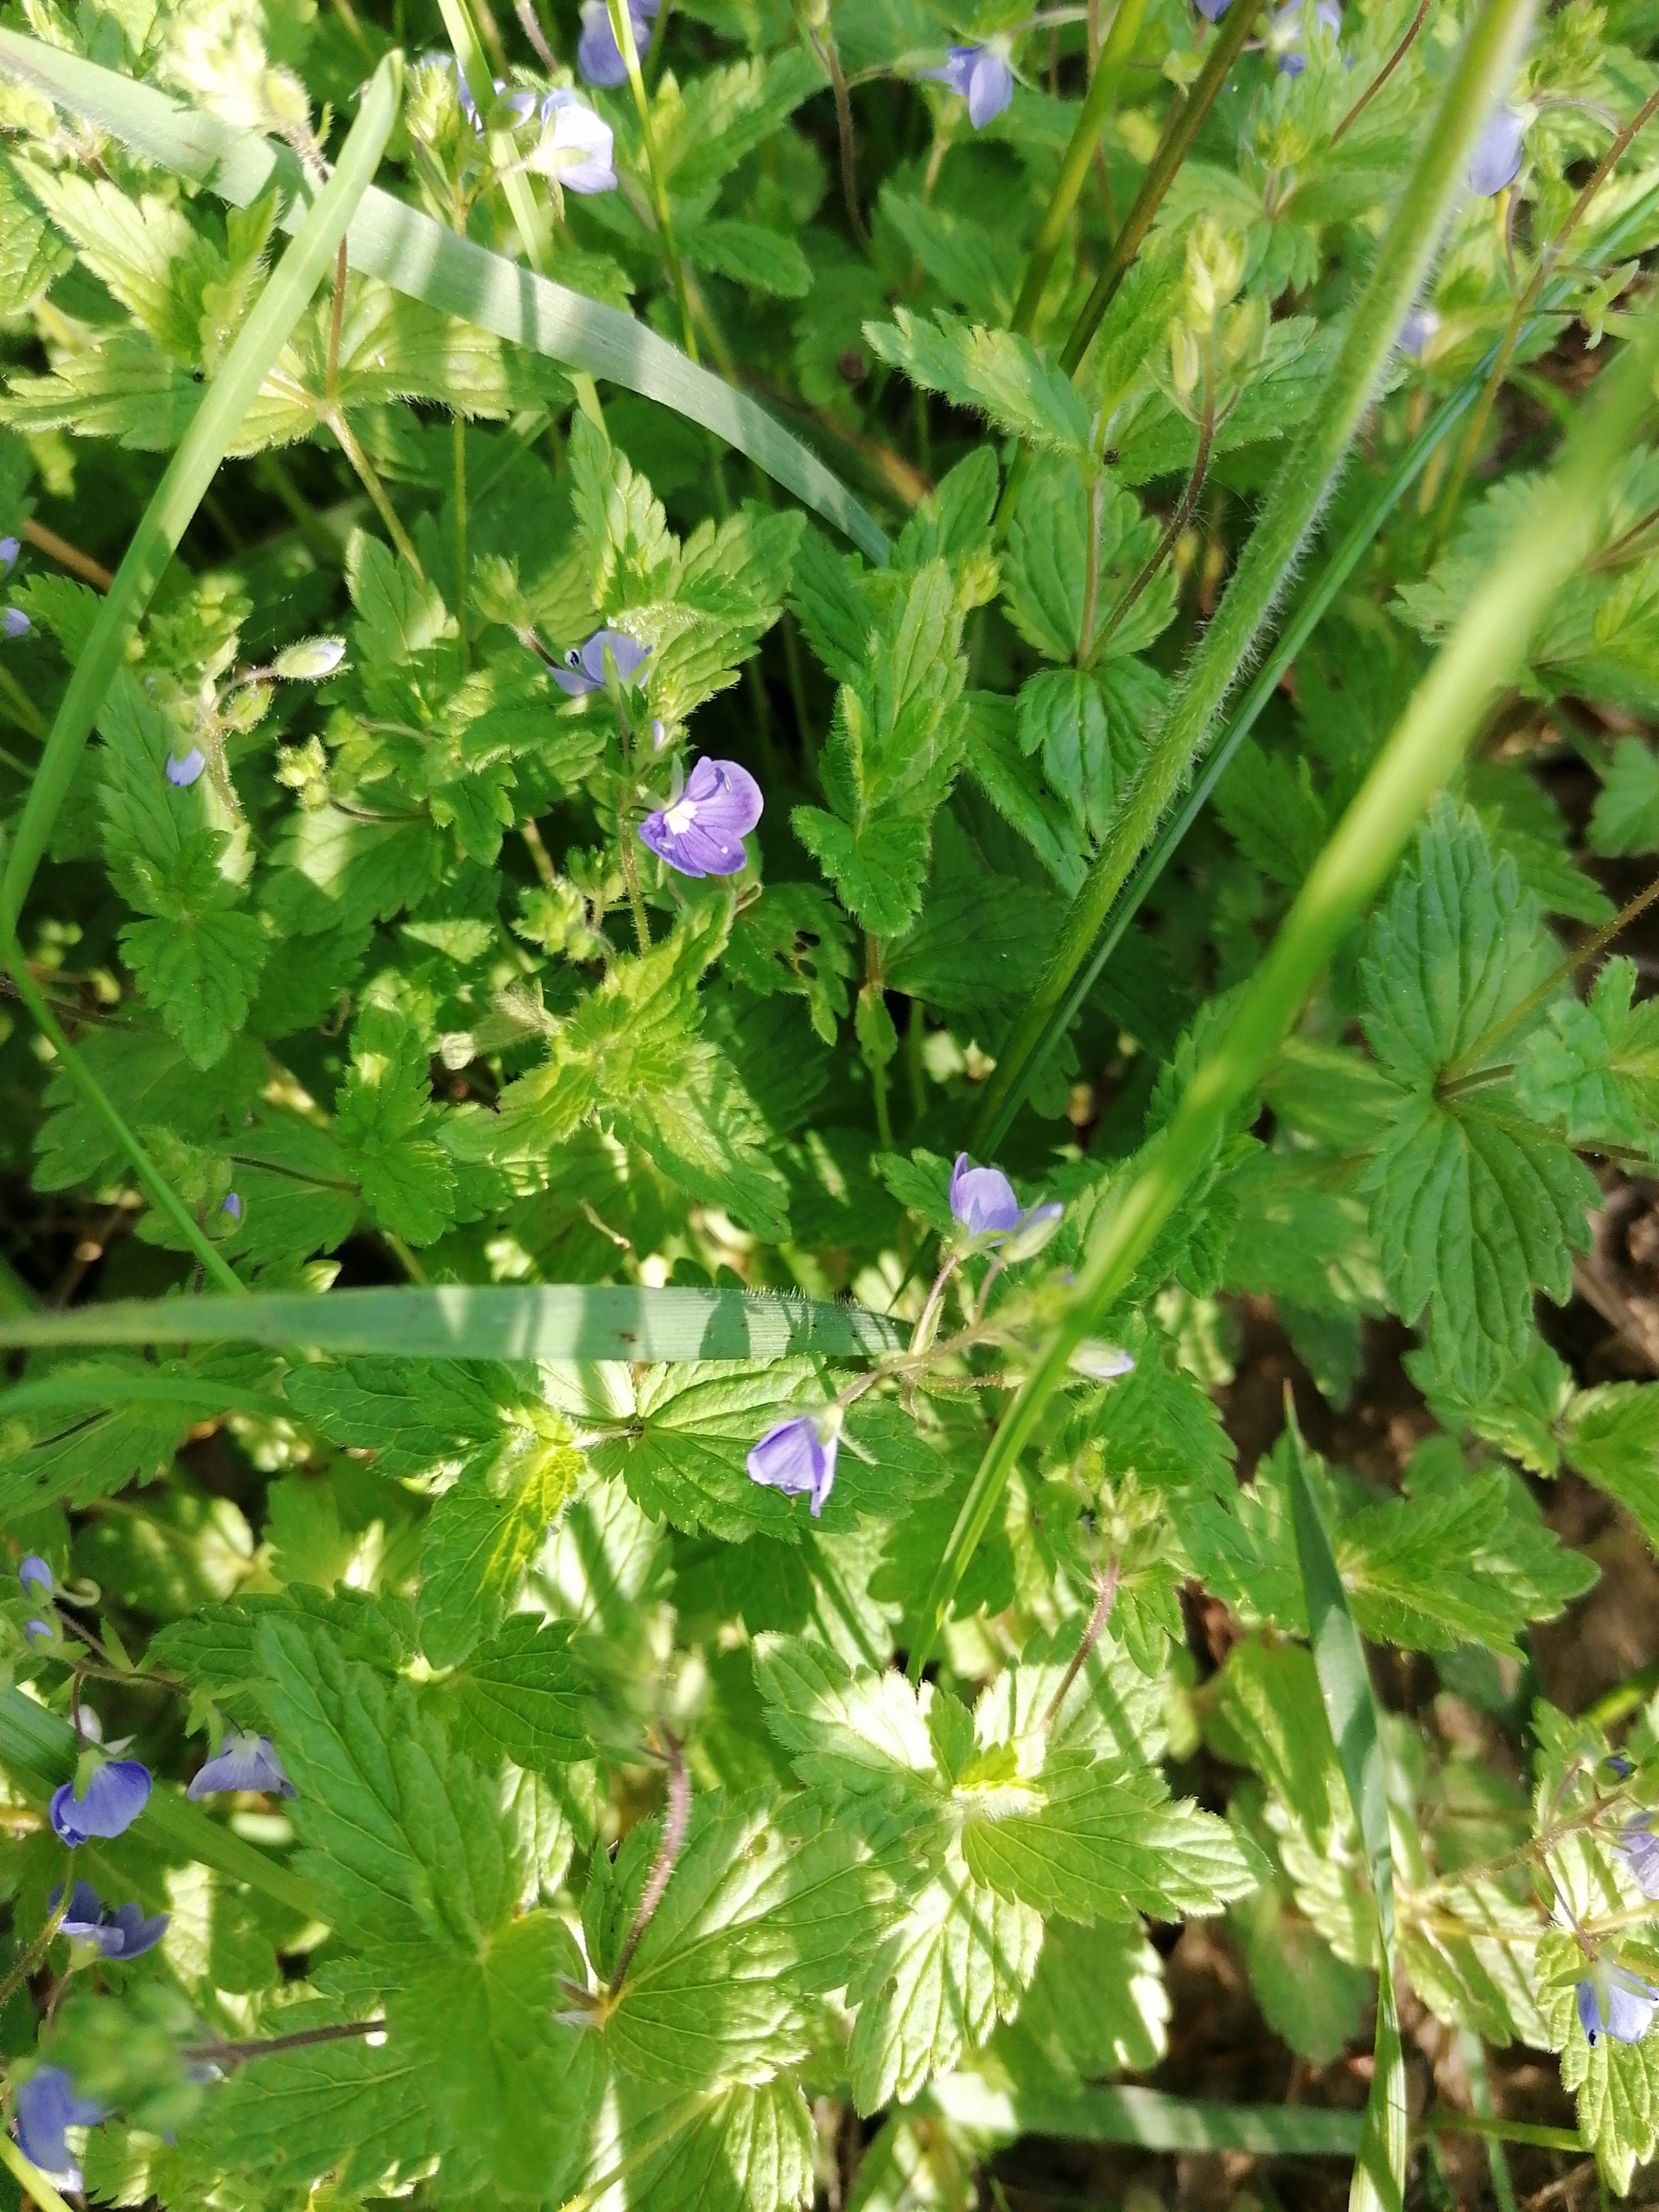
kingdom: Plantae
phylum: Tracheophyta
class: Magnoliopsida
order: Lamiales
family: Plantaginaceae
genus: Veronica
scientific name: Veronica chamaedrys
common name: Tveskægget ærenpris
